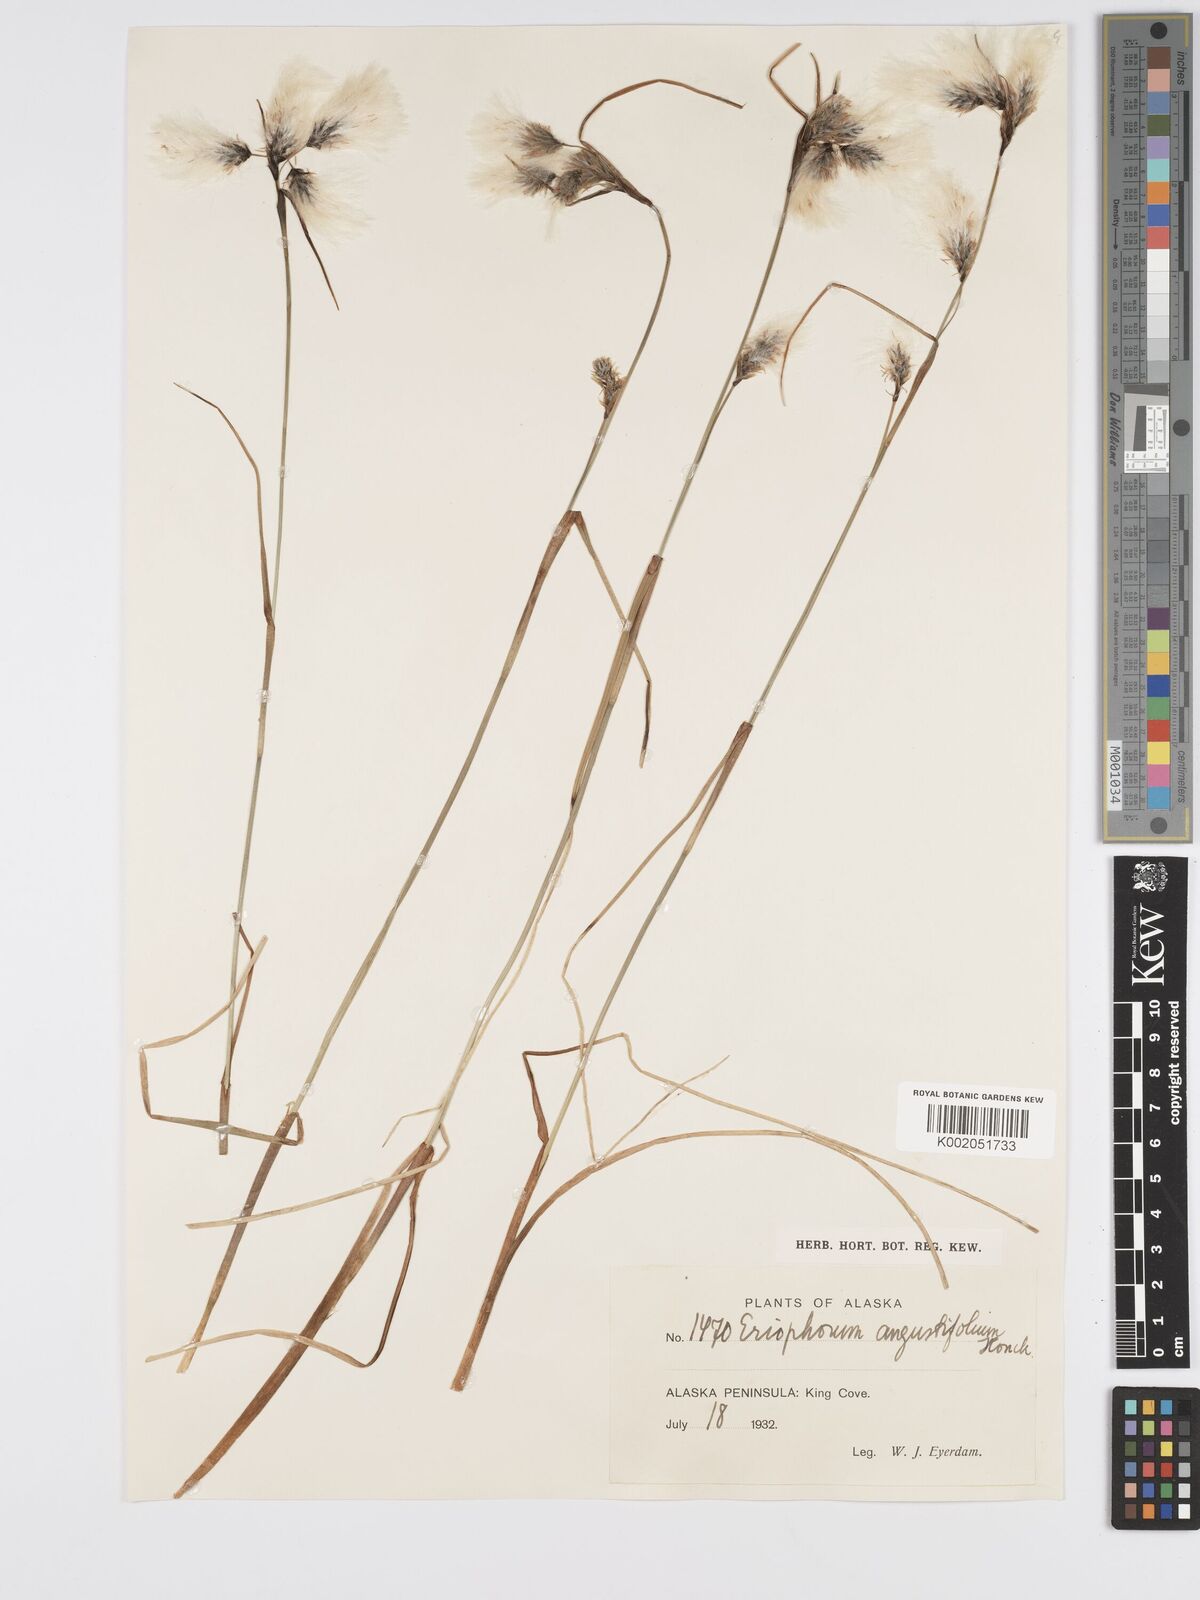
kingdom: Plantae
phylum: Tracheophyta
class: Liliopsida
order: Poales
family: Cyperaceae
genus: Eriophorum
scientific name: Eriophorum angustifolium
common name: Common cottongrass
